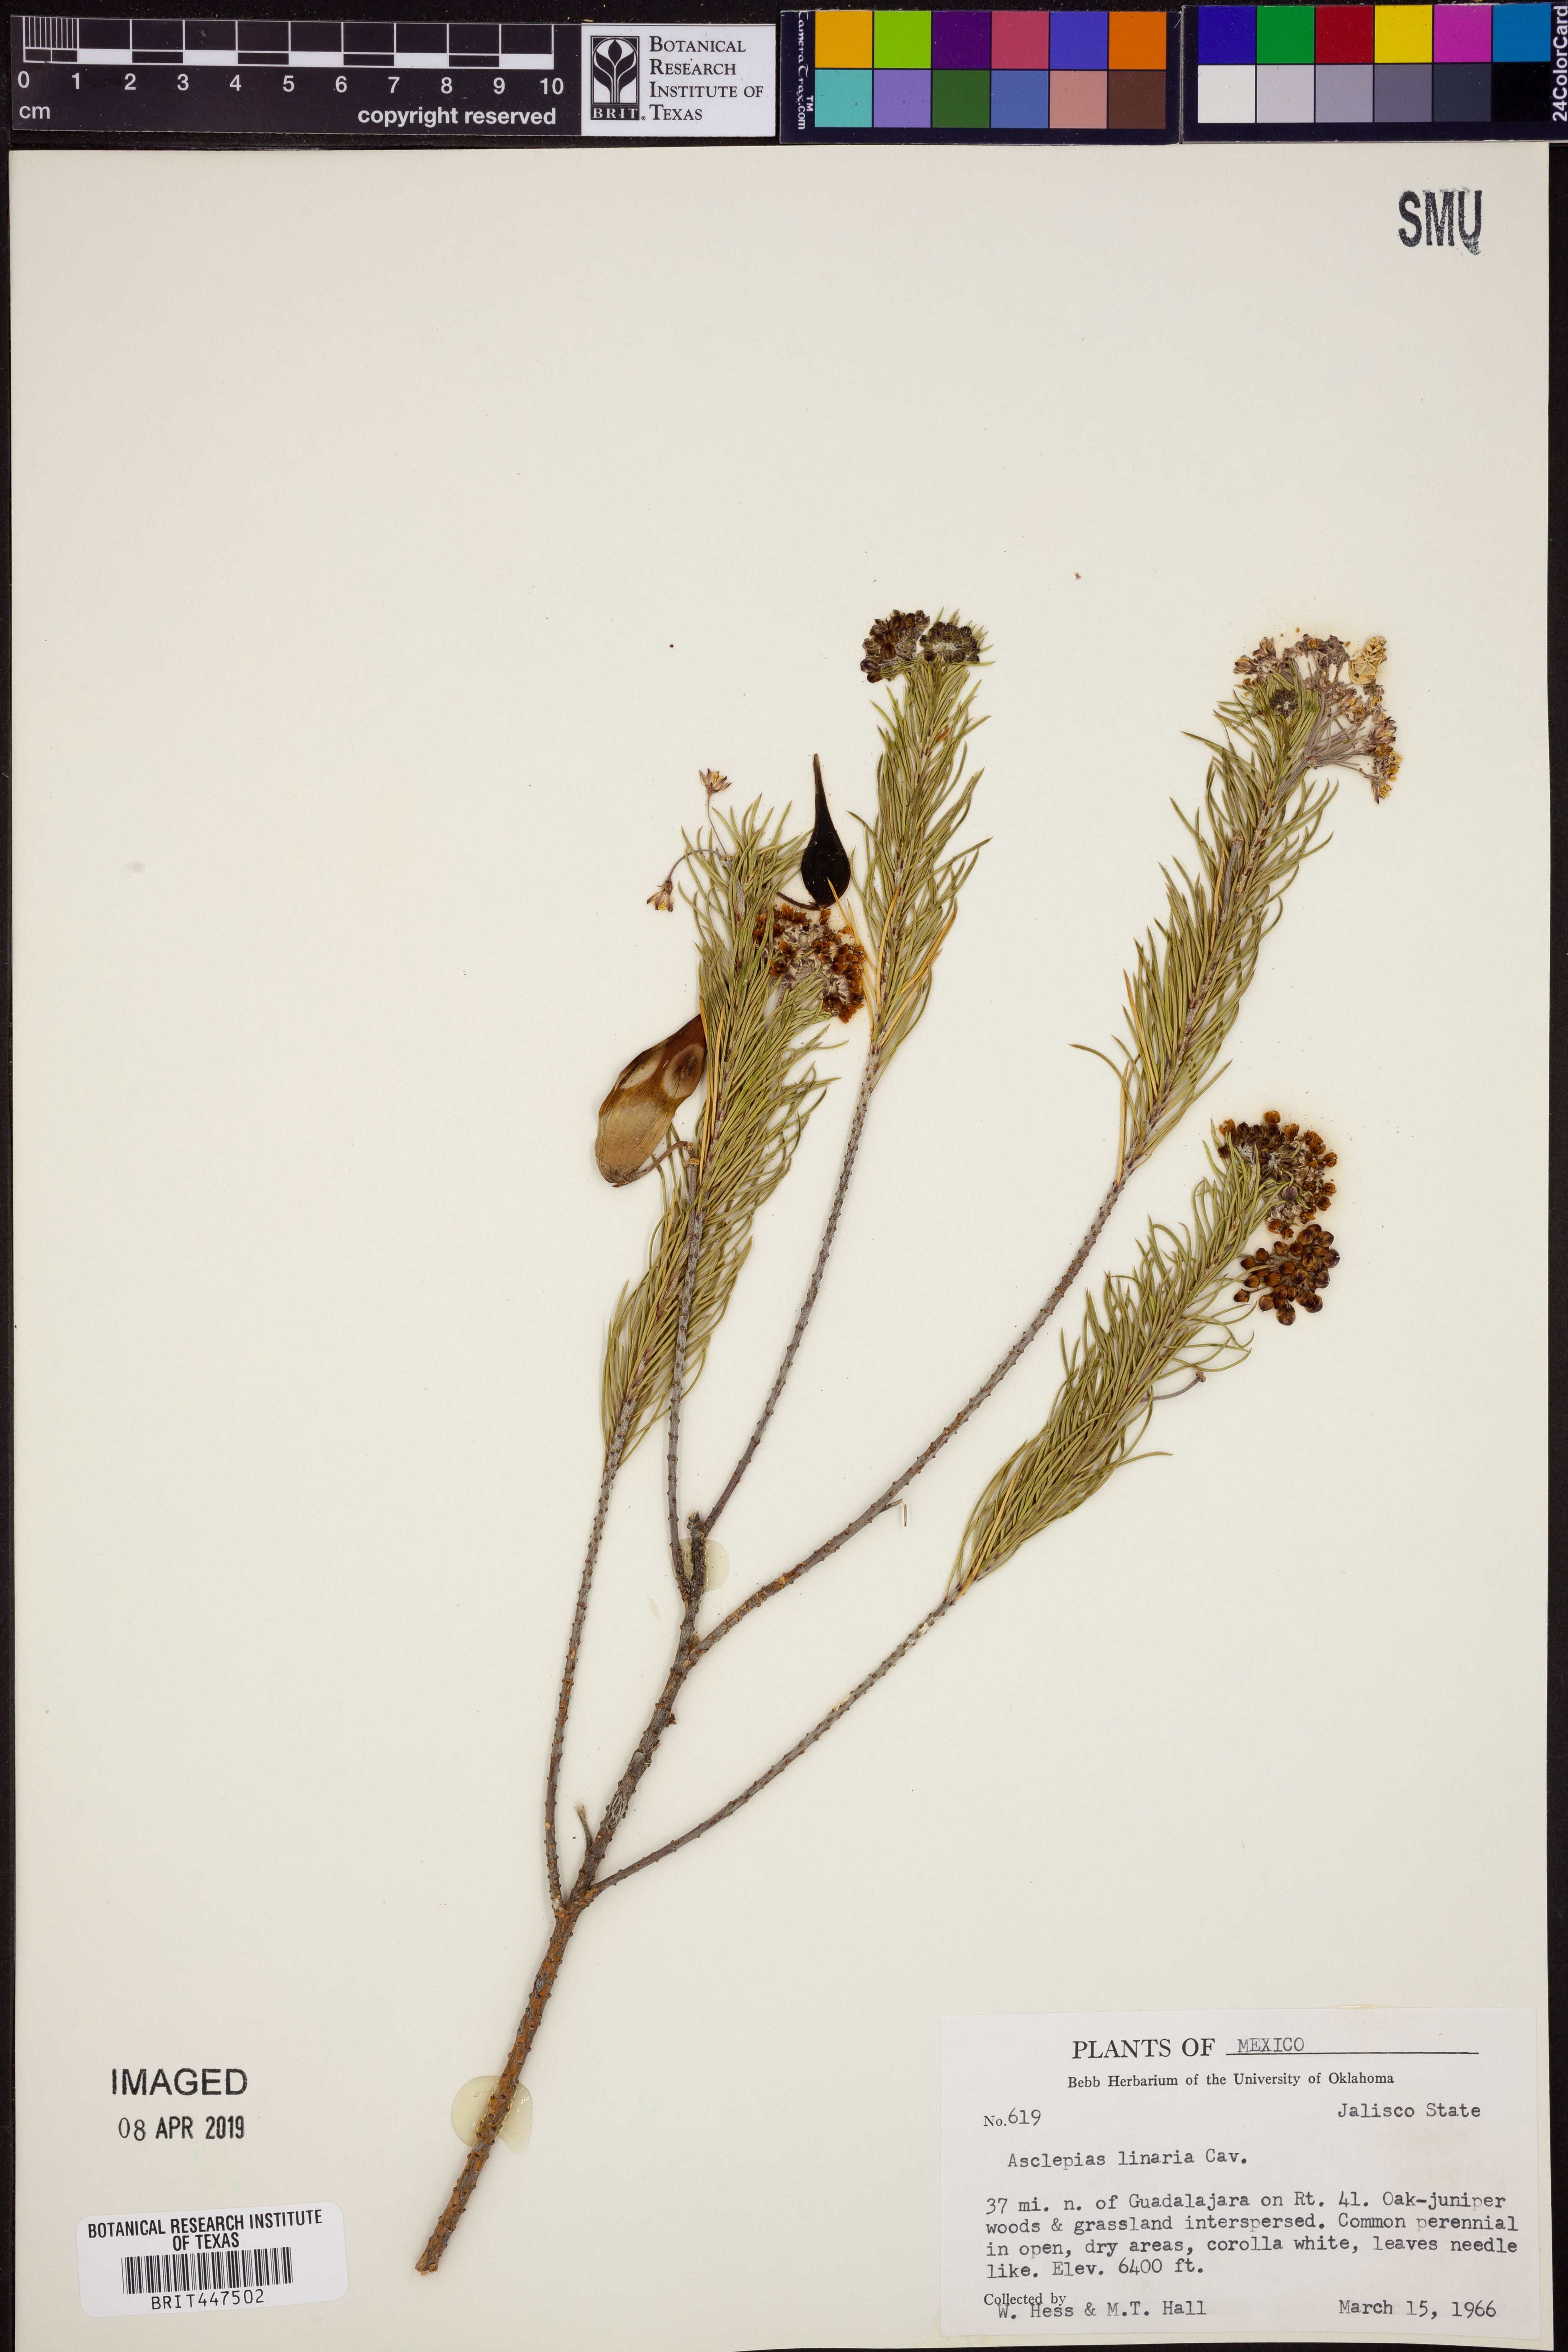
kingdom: Plantae
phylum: Tracheophyta
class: Magnoliopsida
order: Gentianales
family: Apocynaceae
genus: Asclepias
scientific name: Asclepias linaria
